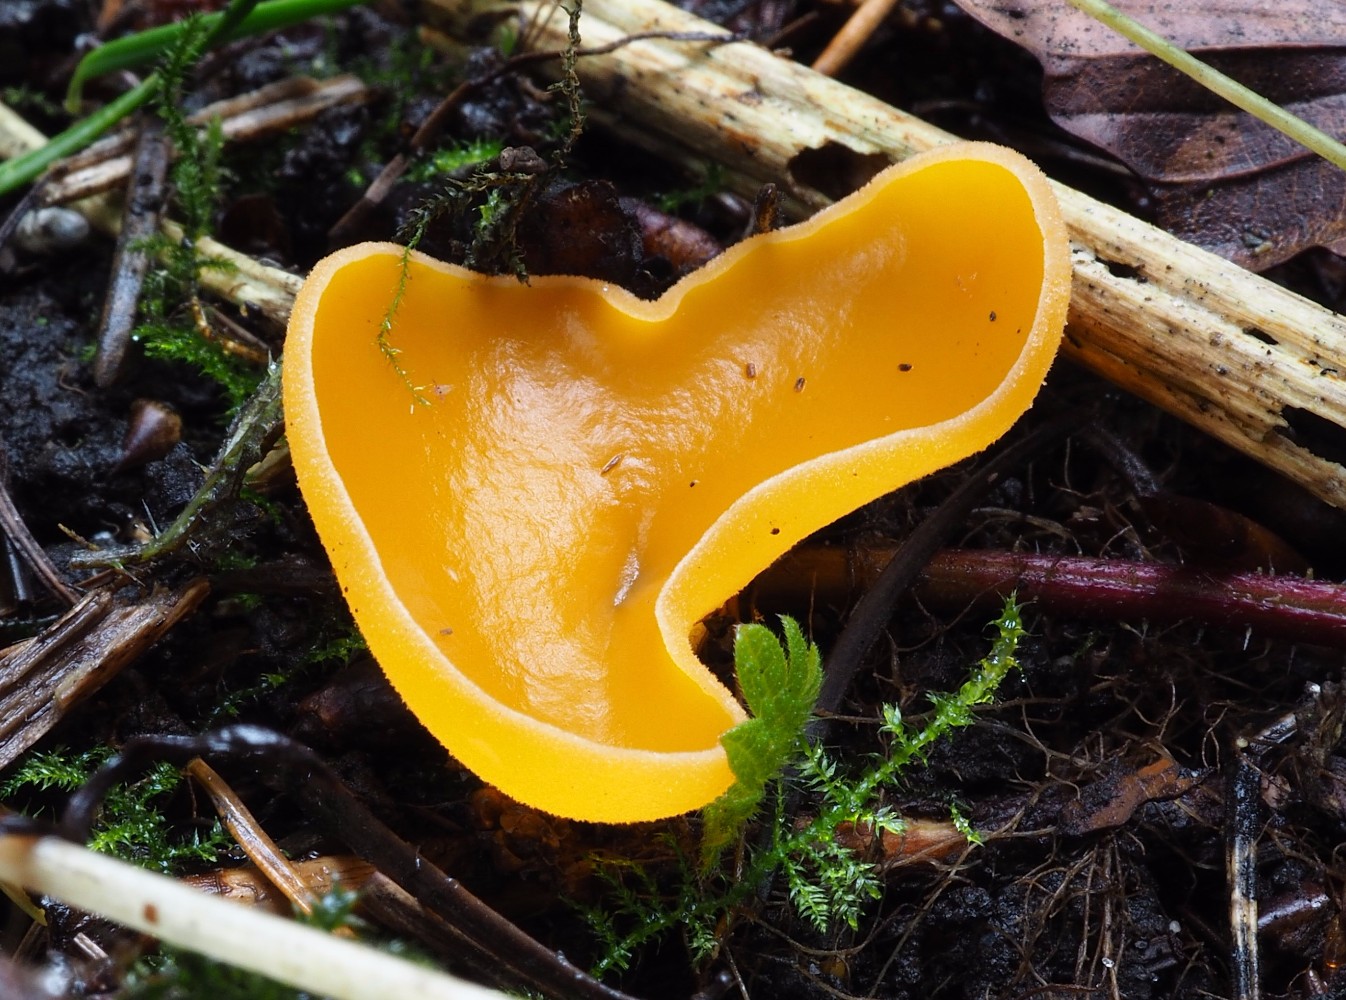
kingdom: Fungi
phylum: Ascomycota
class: Pezizomycetes
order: Pezizales
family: Pyronemataceae
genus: Aleuria
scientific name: Aleuria aurantia
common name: almindelig orangebæger
